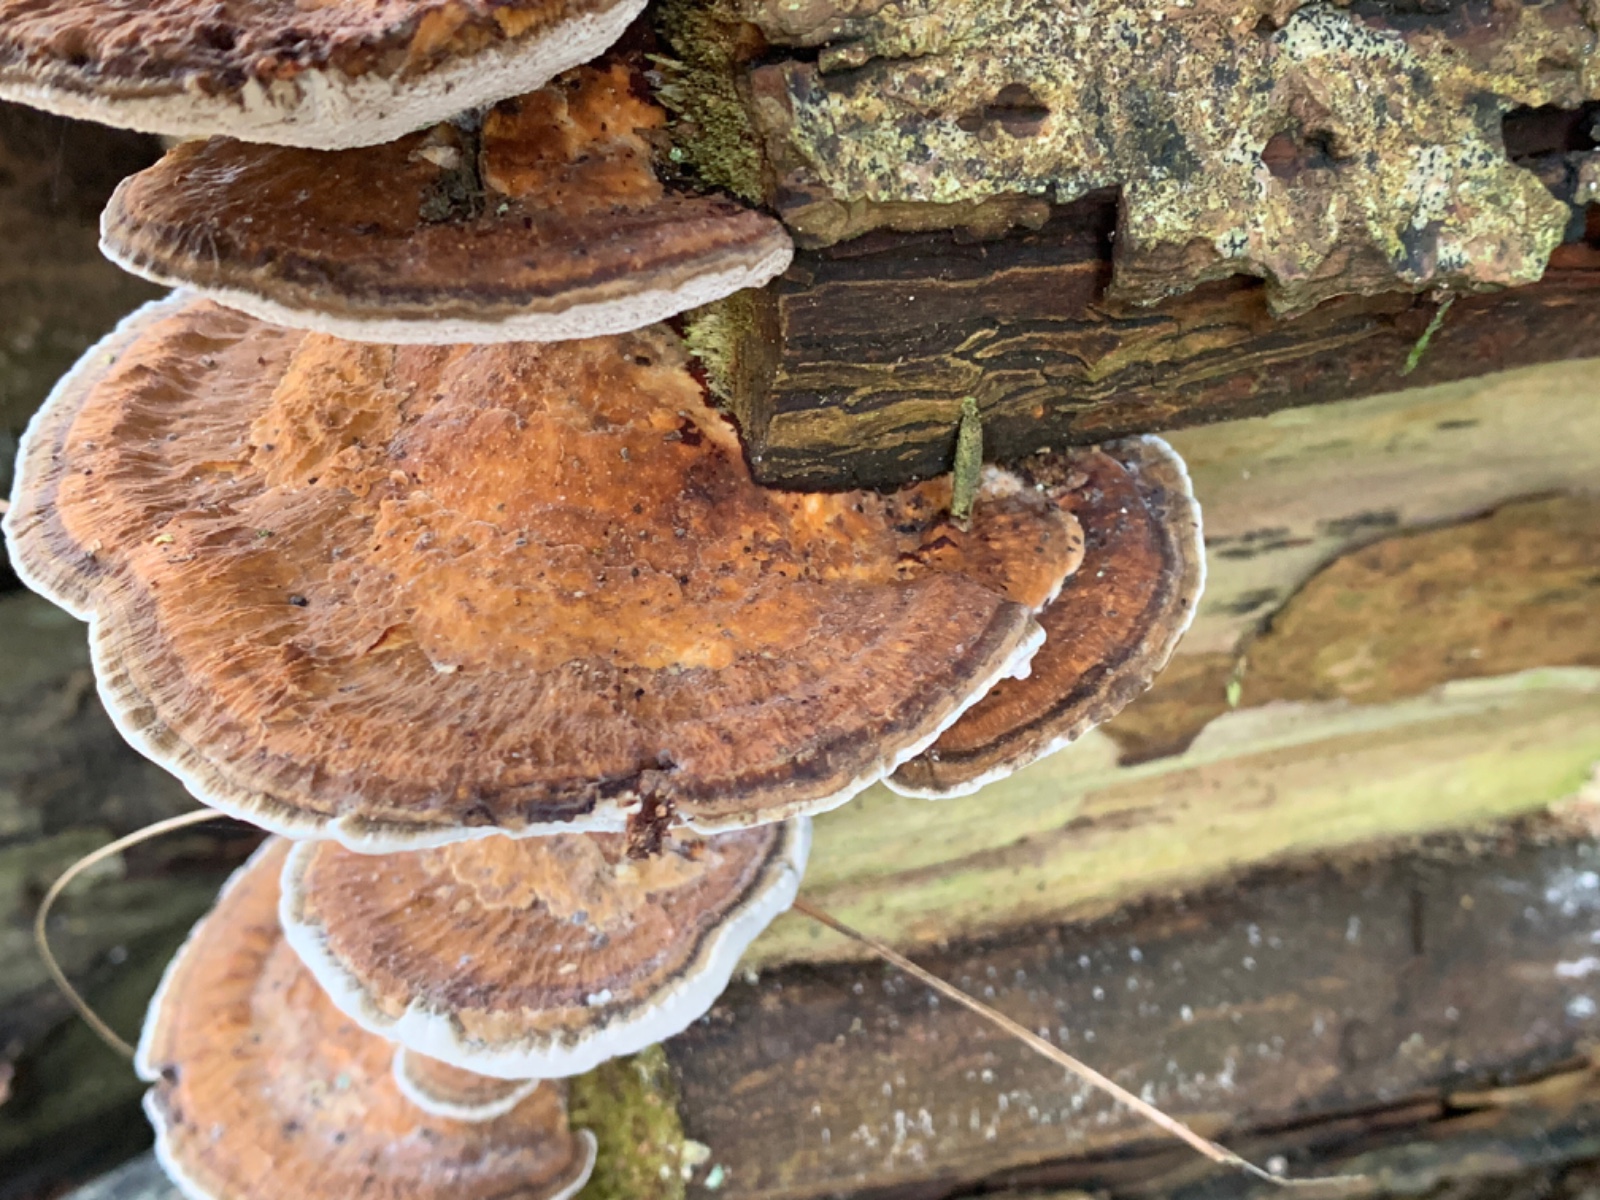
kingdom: Fungi
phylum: Basidiomycota
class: Agaricomycetes
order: Polyporales
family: Polyporaceae
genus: Daedaleopsis
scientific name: Daedaleopsis confragosa
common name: rødmende læderporesvamp
